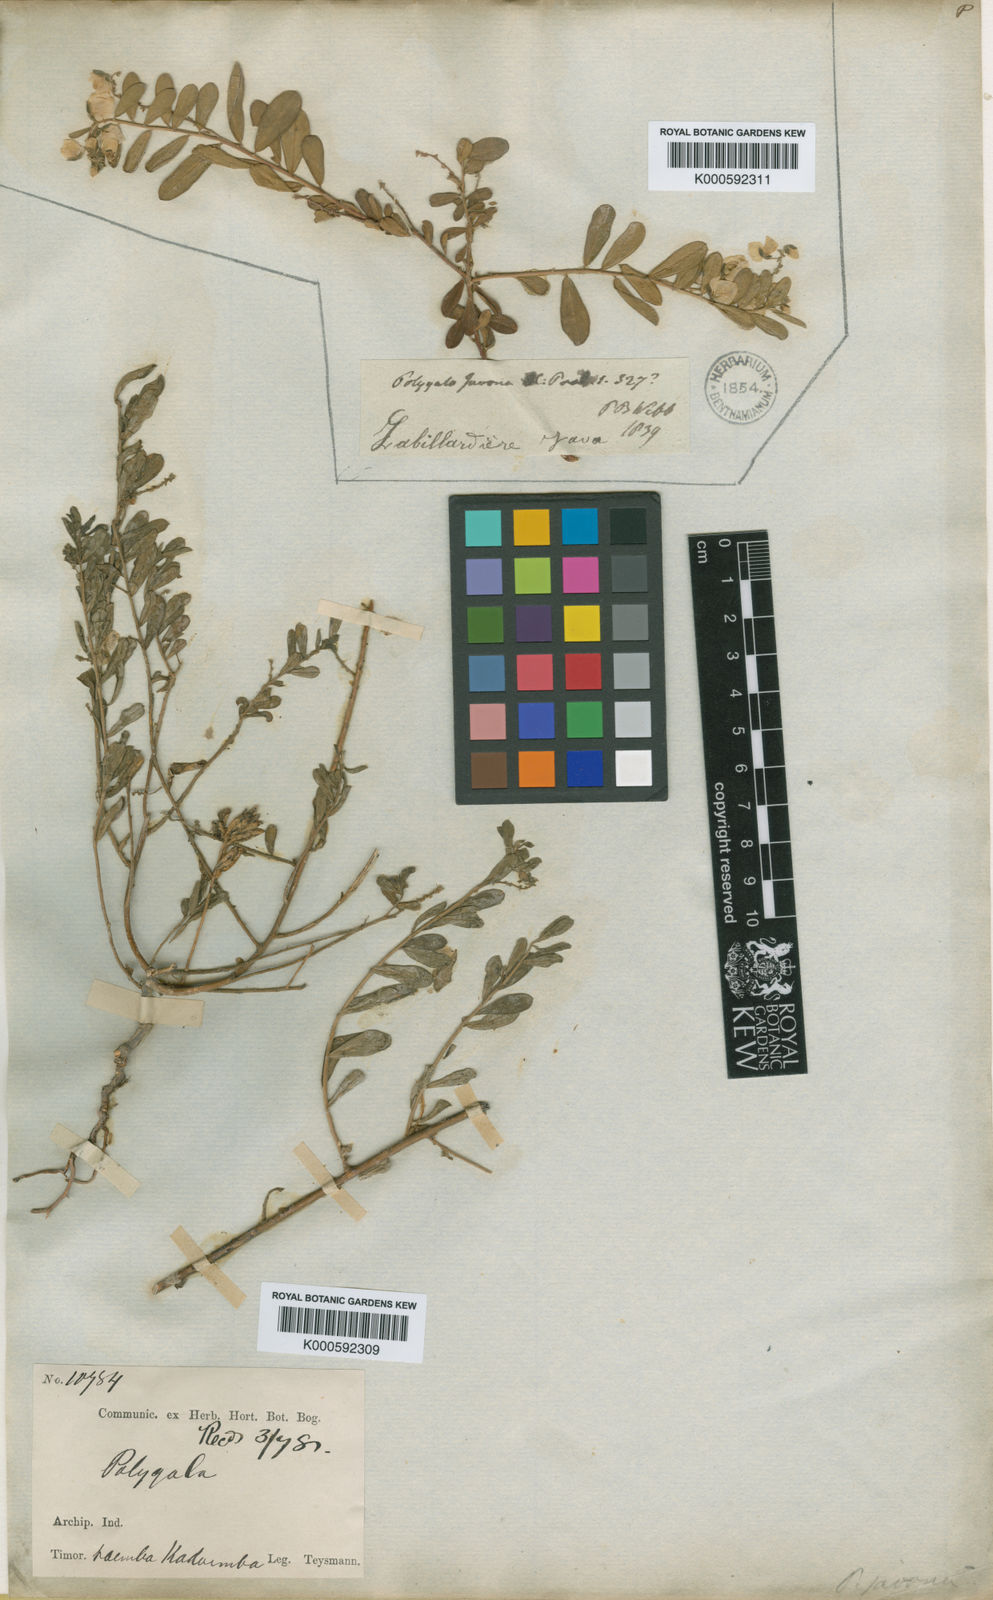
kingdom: Plantae
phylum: Tracheophyta
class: Magnoliopsida
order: Fabales
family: Polygalaceae
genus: Polygala
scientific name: Polygala javana
